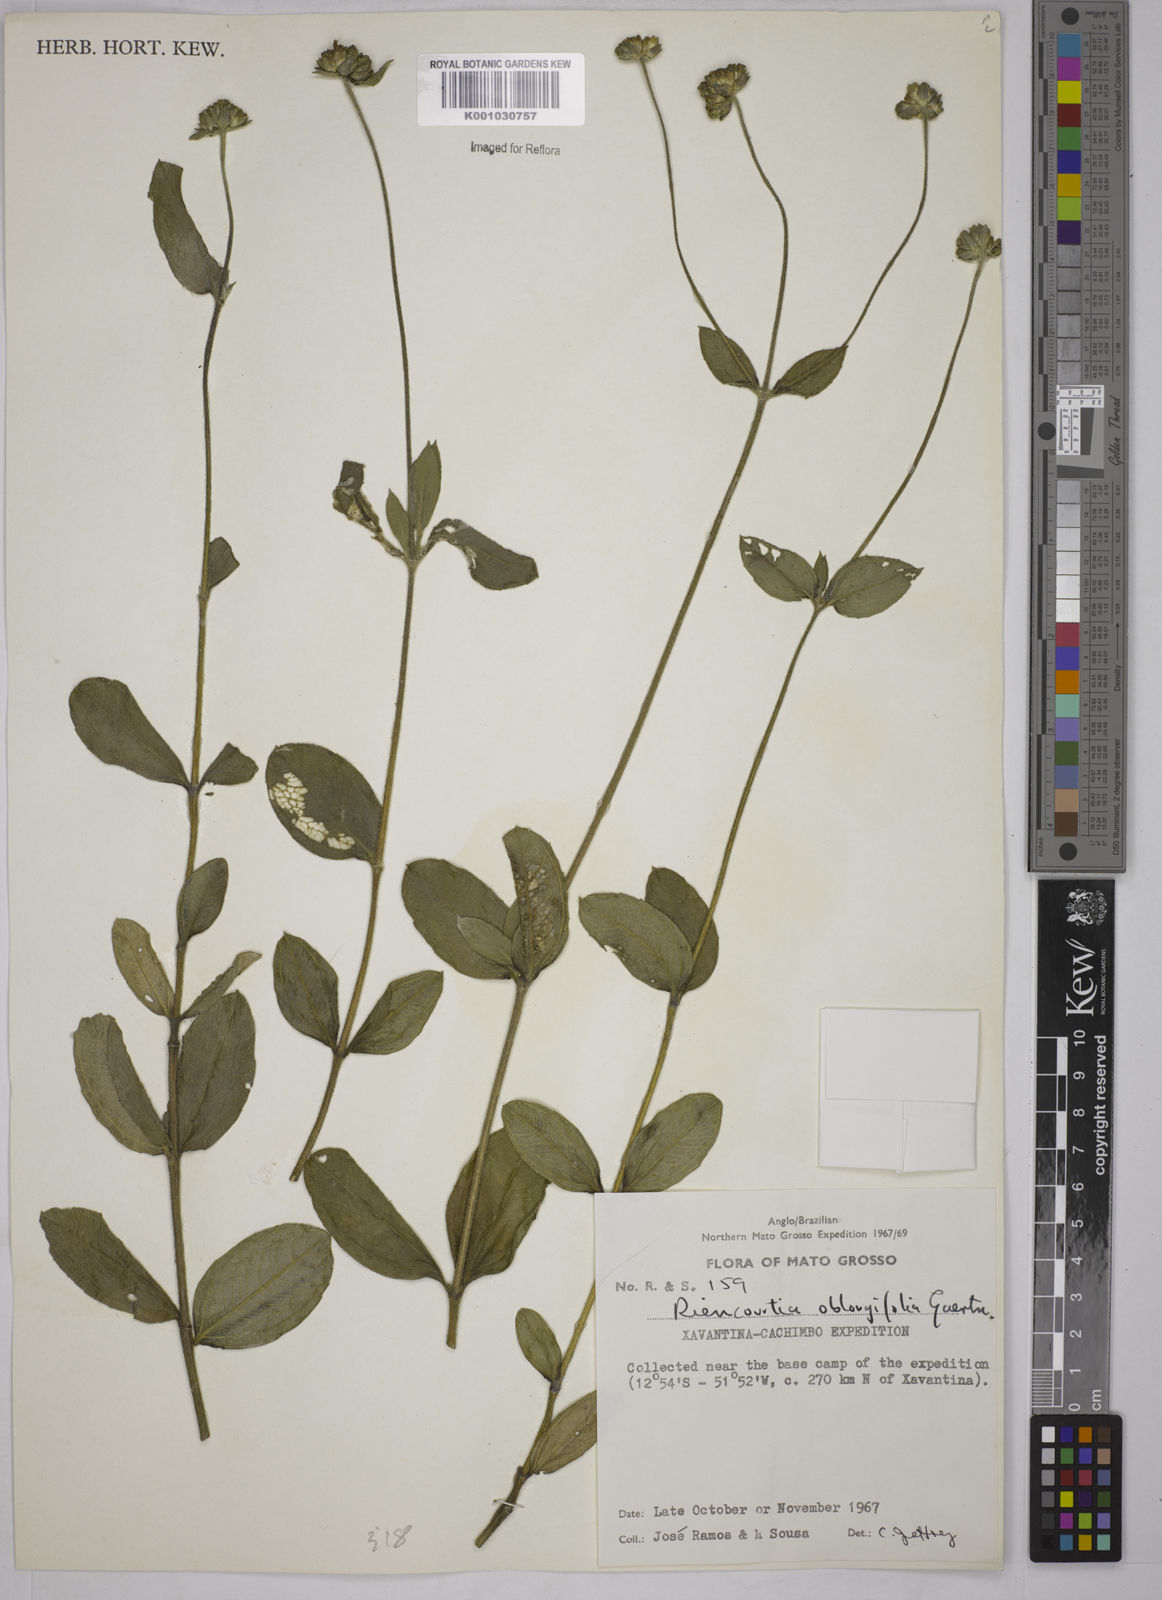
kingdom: Plantae
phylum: Tracheophyta
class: Magnoliopsida
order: Asterales
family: Asteraceae
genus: Riencourtia
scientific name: Riencourtia oblongifolia
